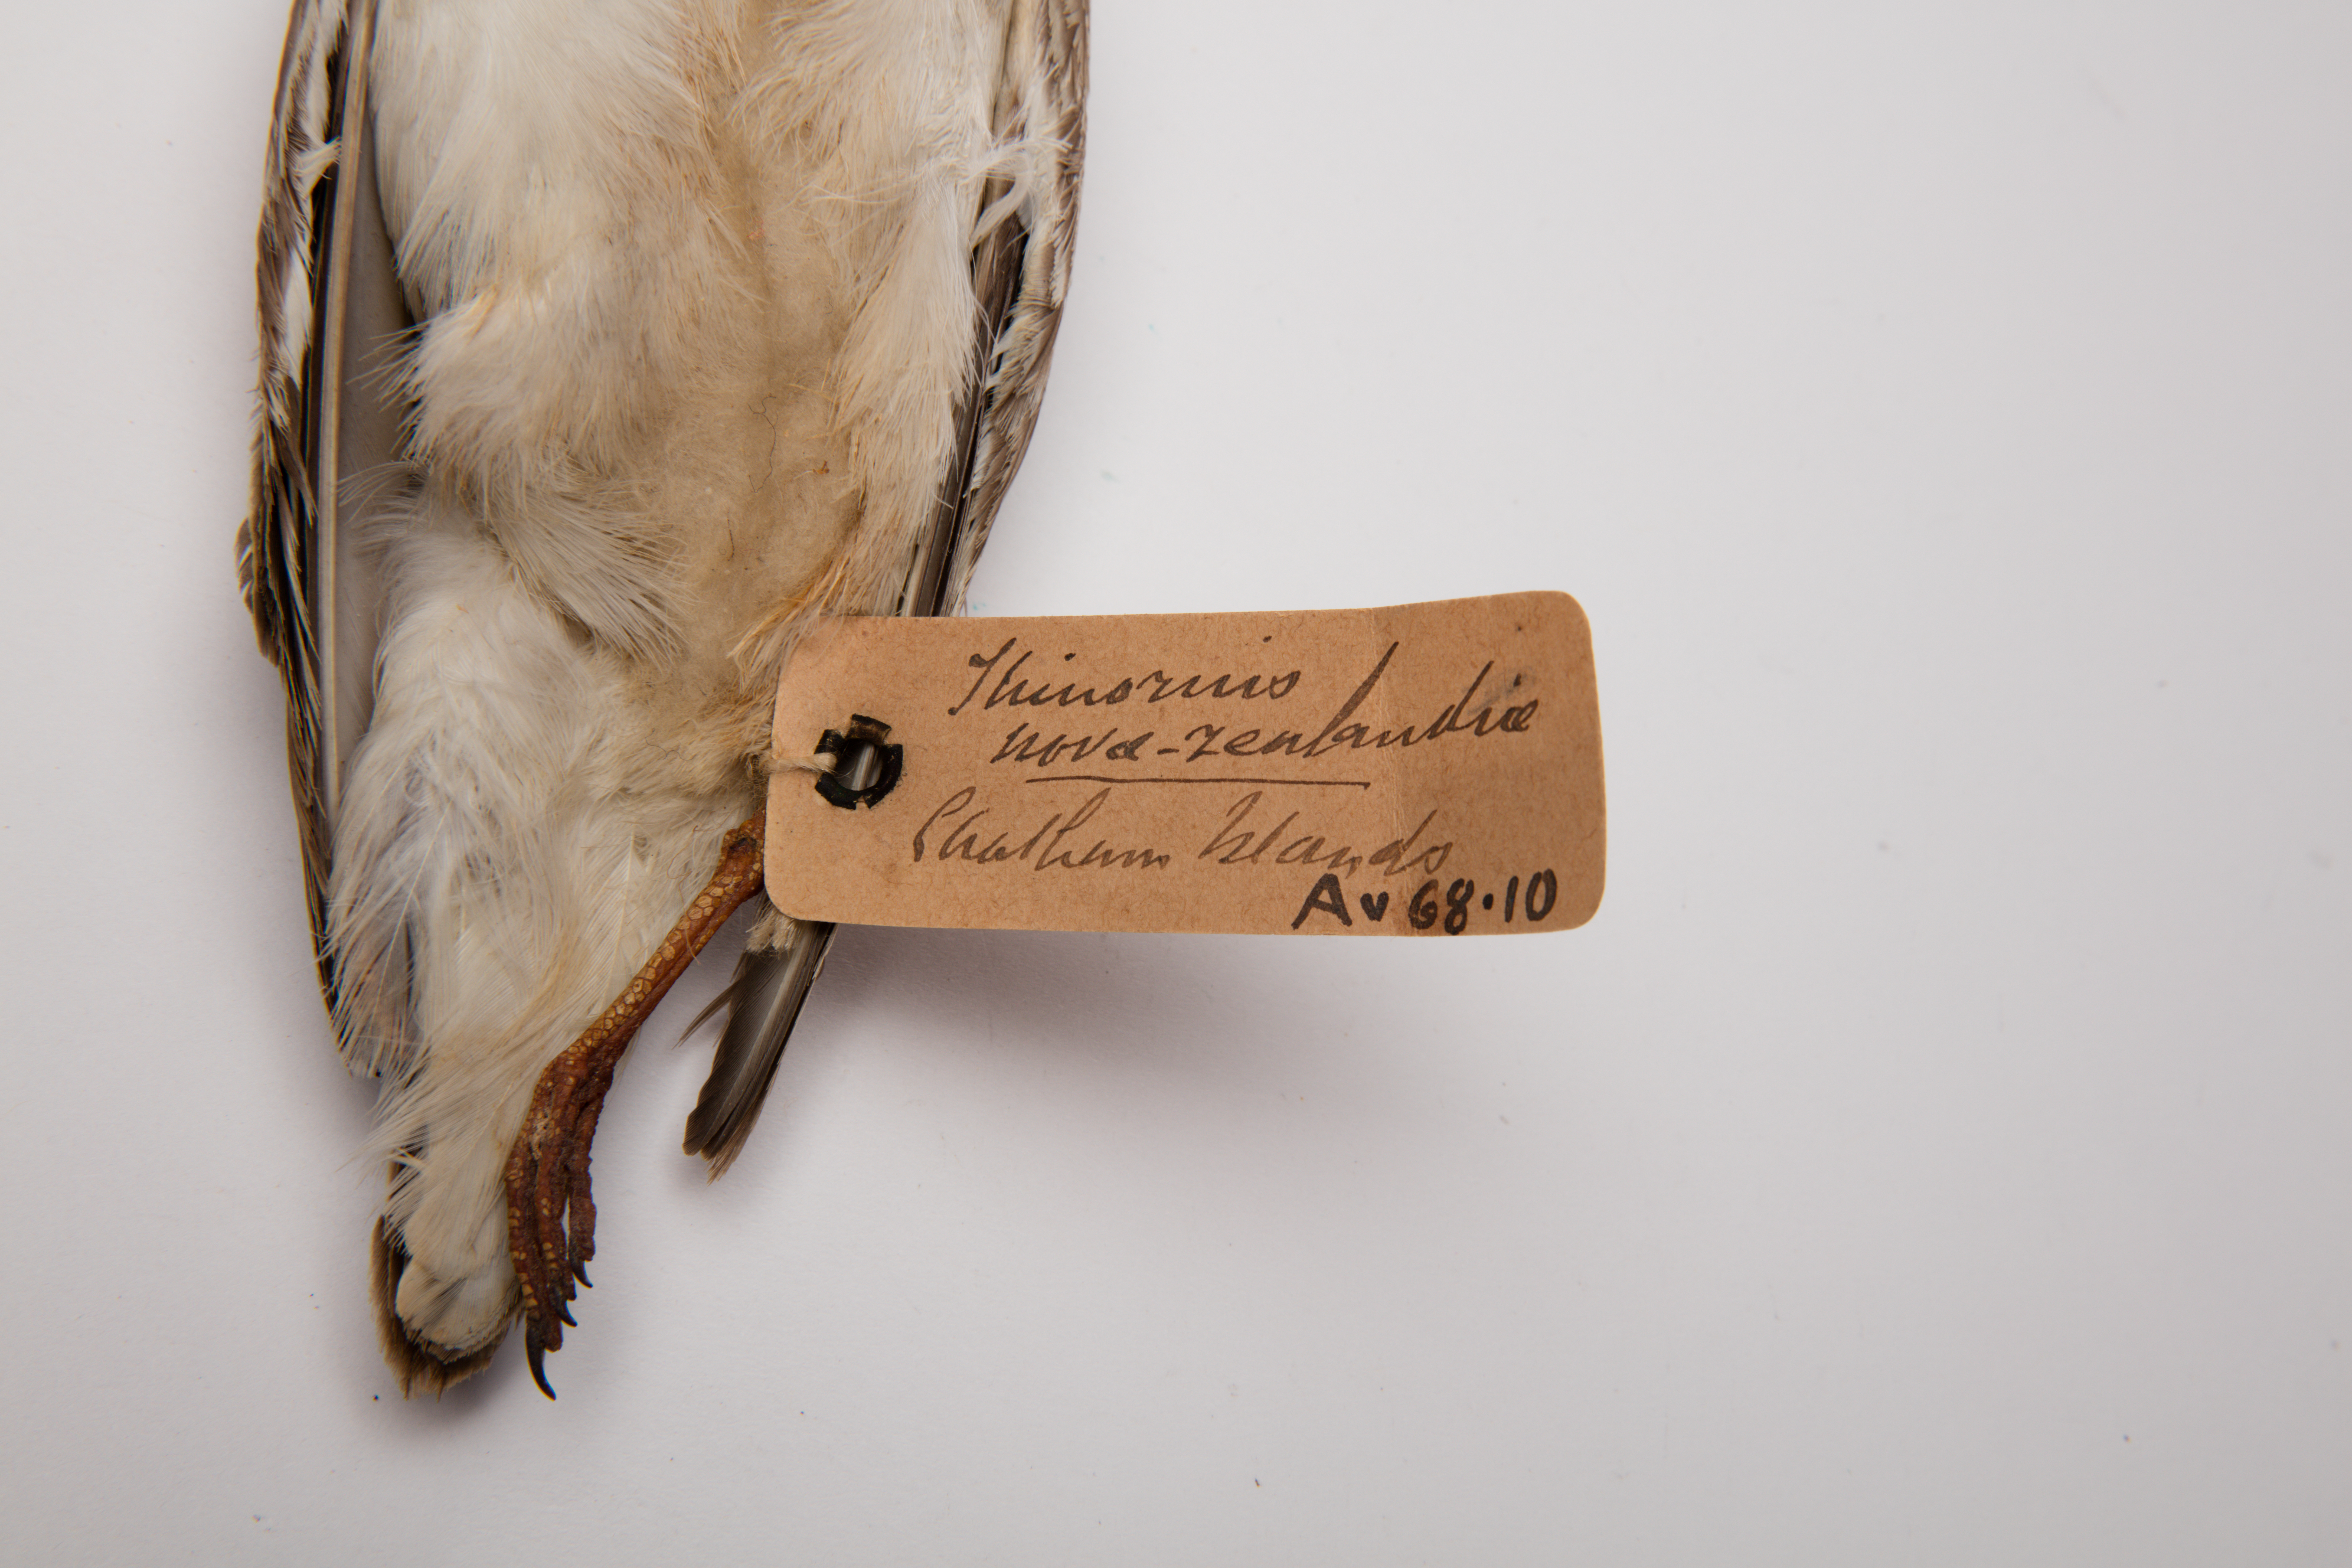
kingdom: Animalia
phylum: Chordata
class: Aves
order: Charadriiformes
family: Charadriidae
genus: Thinornis
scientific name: Thinornis novaeseelandiae
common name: Shore dotterel
